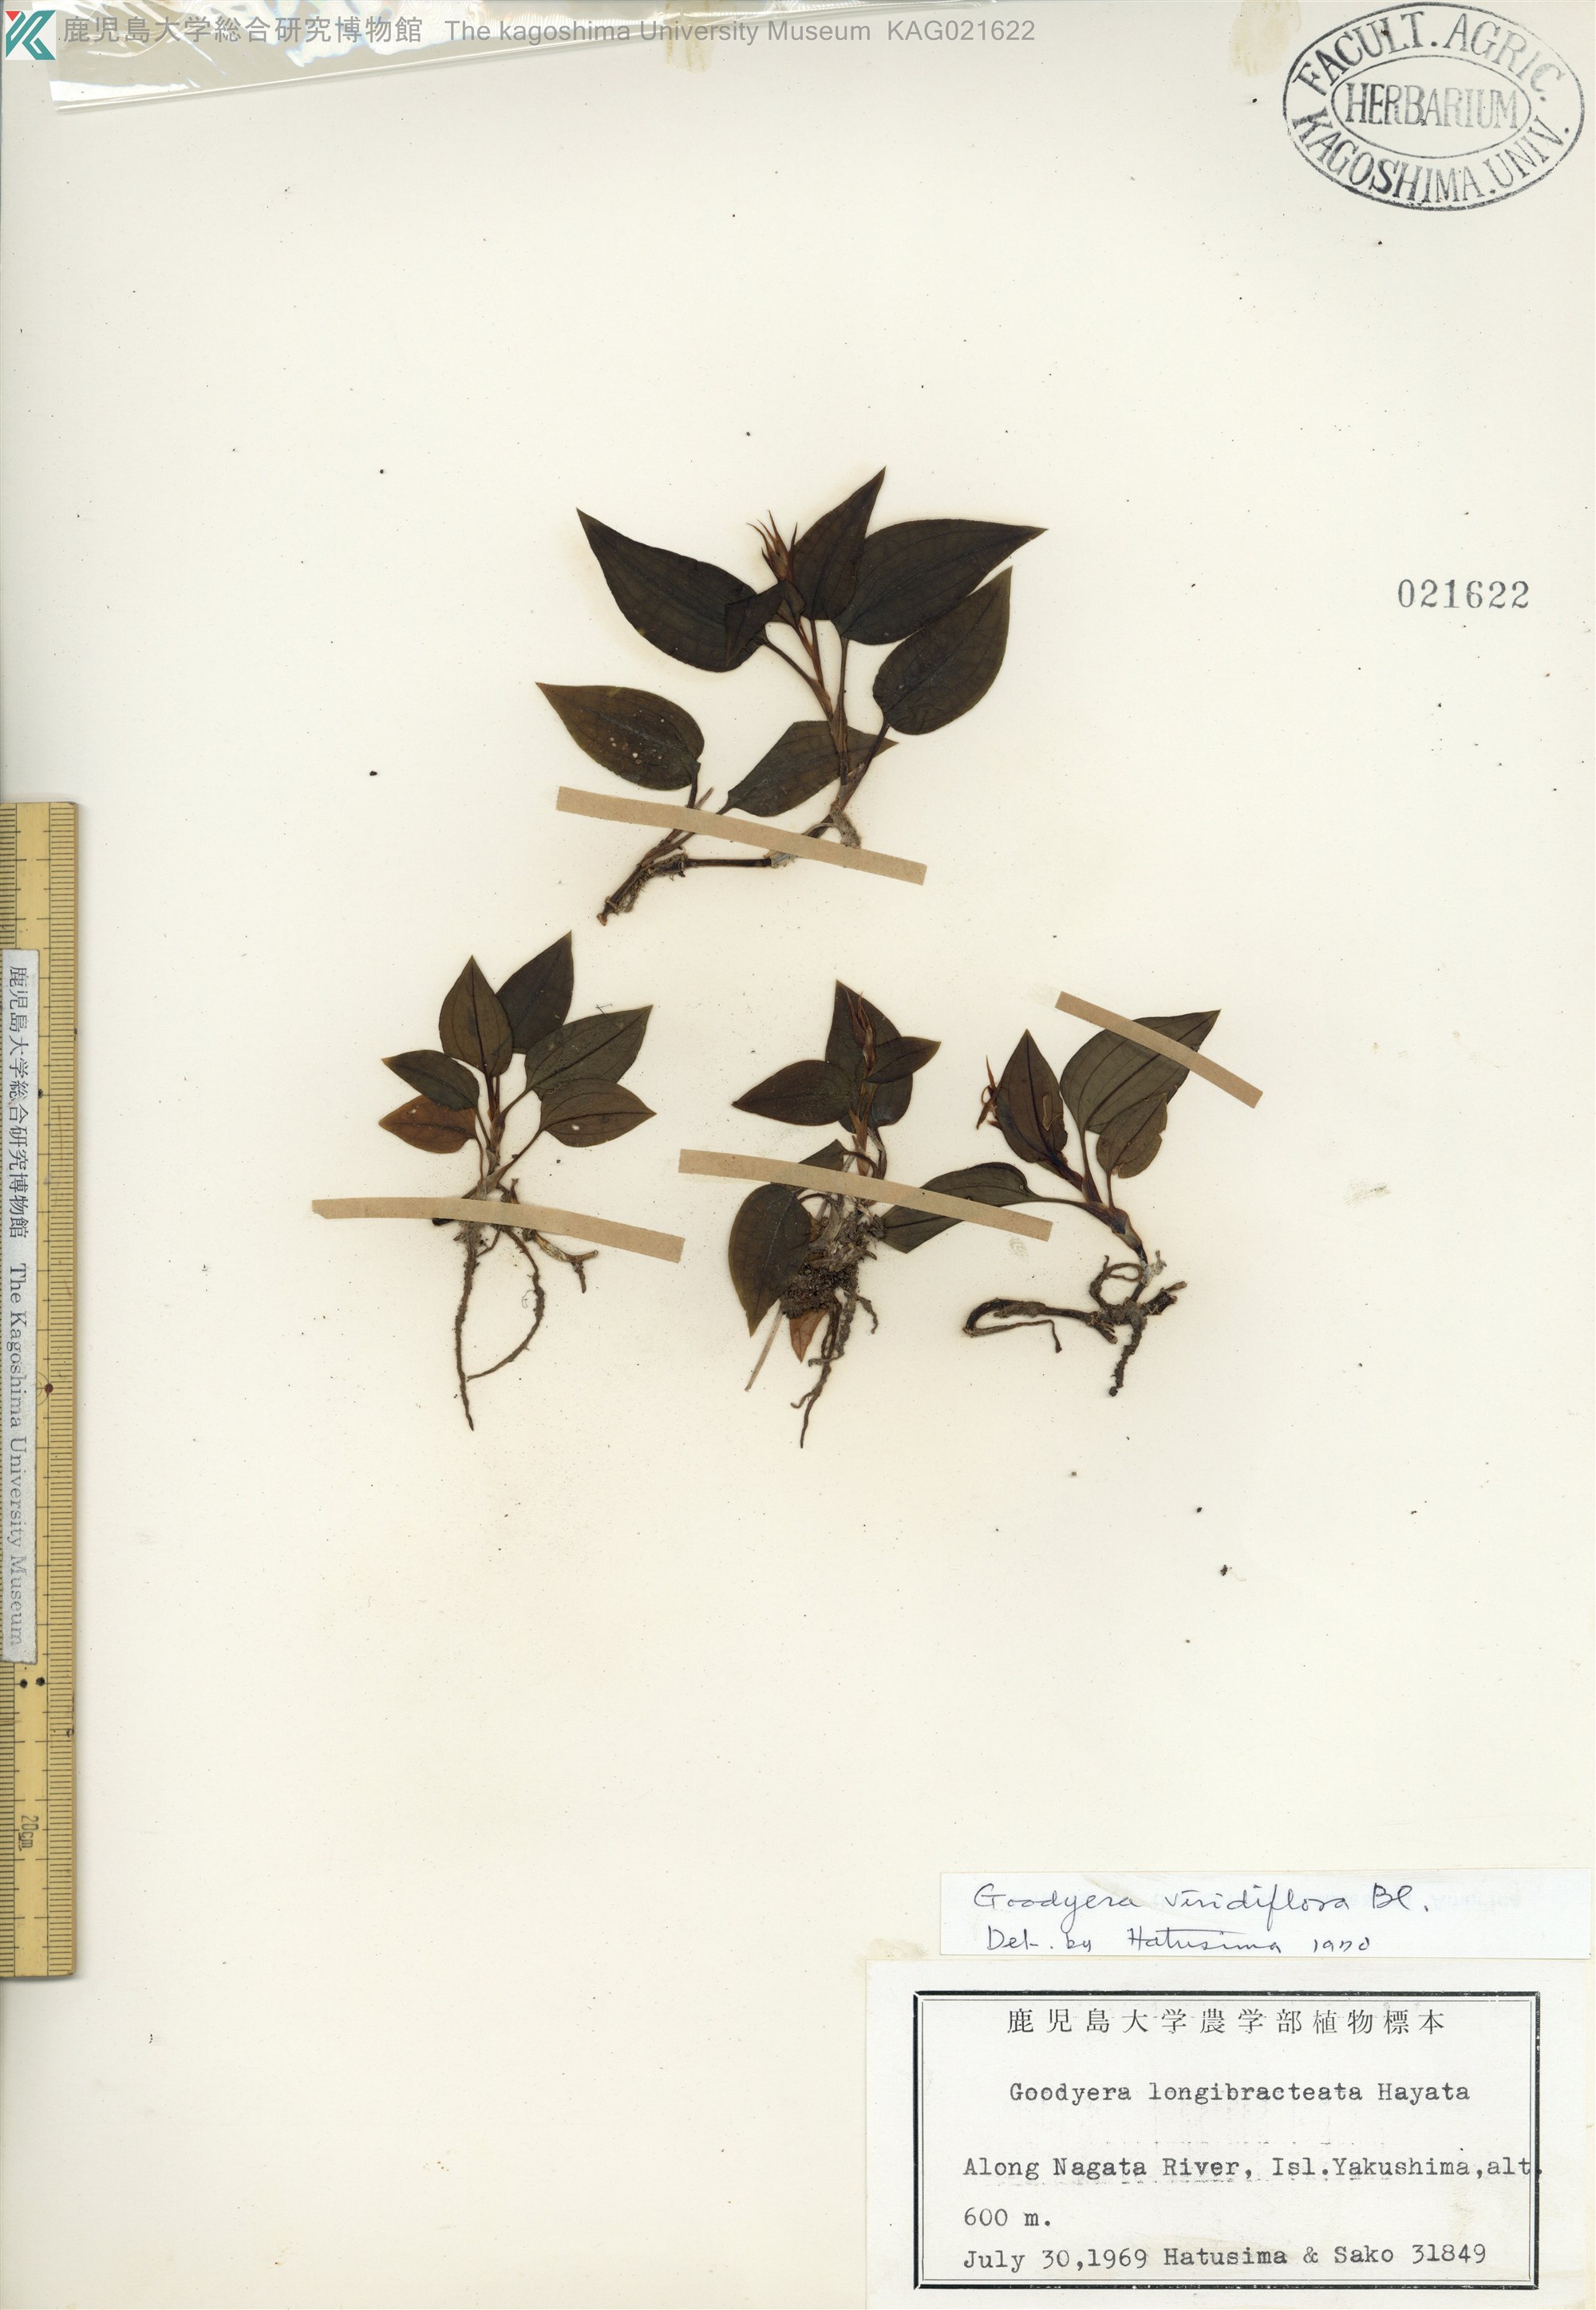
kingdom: Plantae
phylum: Tracheophyta
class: Liliopsida
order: Asparagales
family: Orchidaceae
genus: Goodyera
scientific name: Goodyera viridiflora
